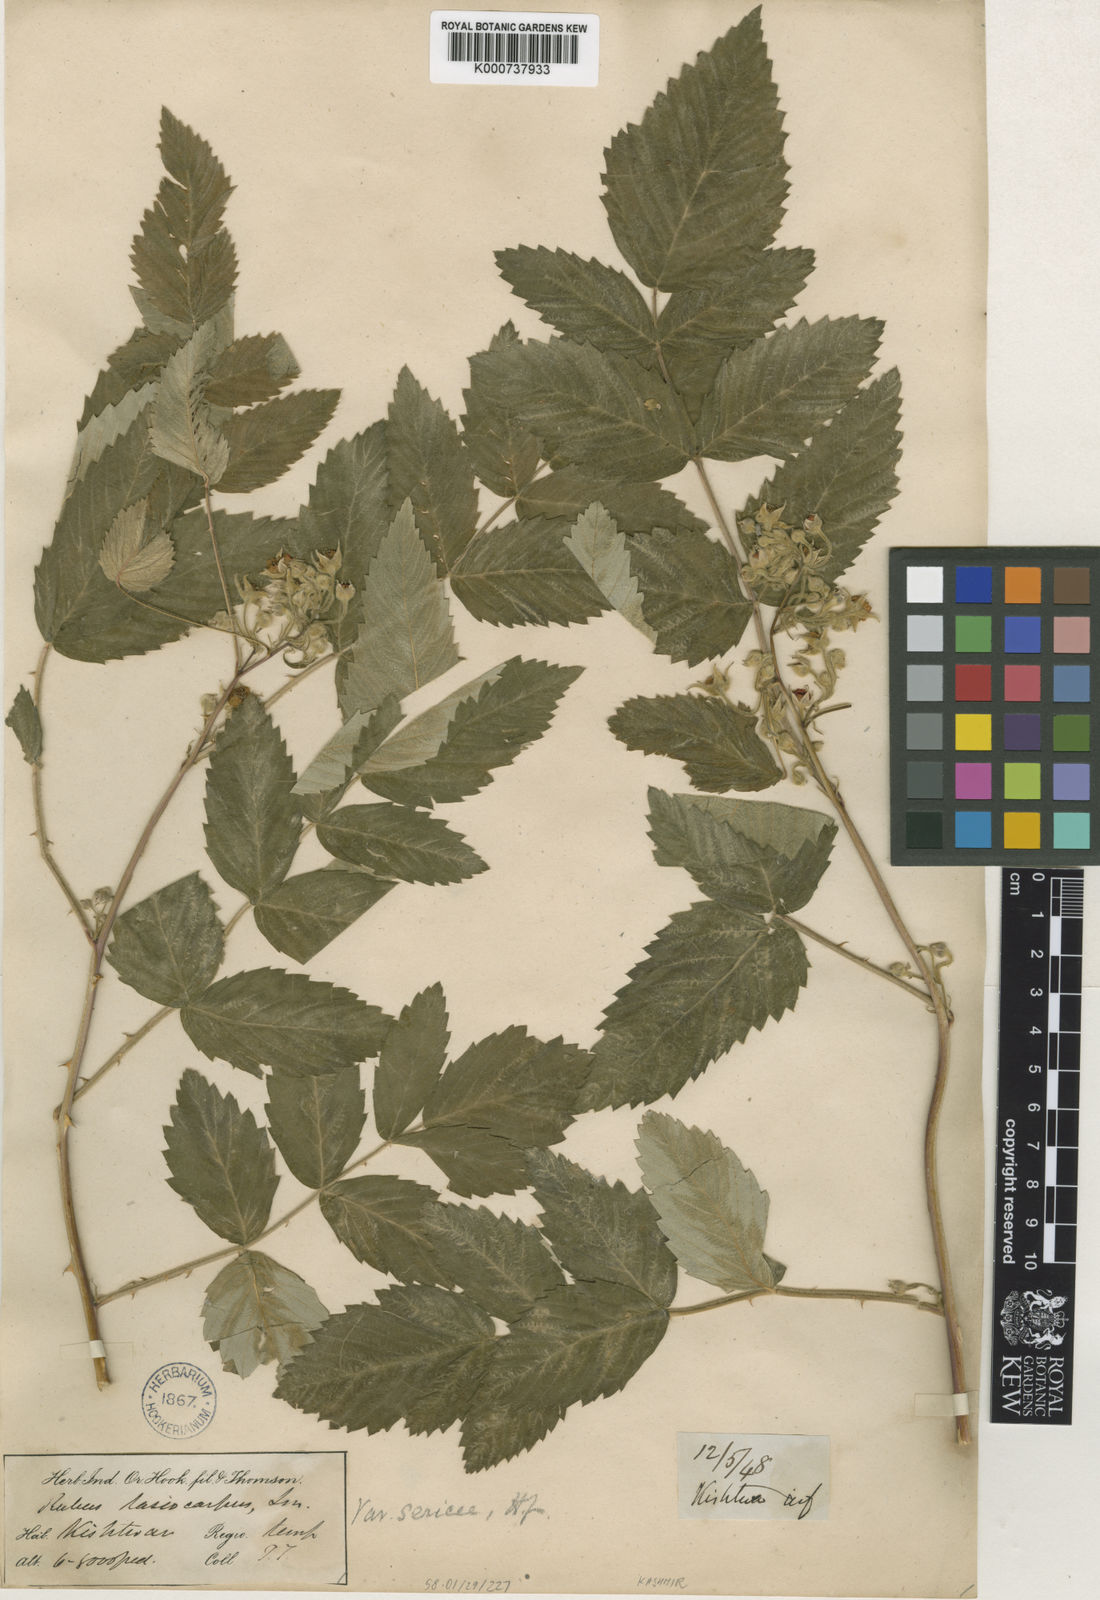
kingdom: Plantae
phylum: Tracheophyta
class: Magnoliopsida
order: Rosales
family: Rosaceae
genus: Rubus
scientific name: Rubus niveus
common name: Snowpeaks raspberry
